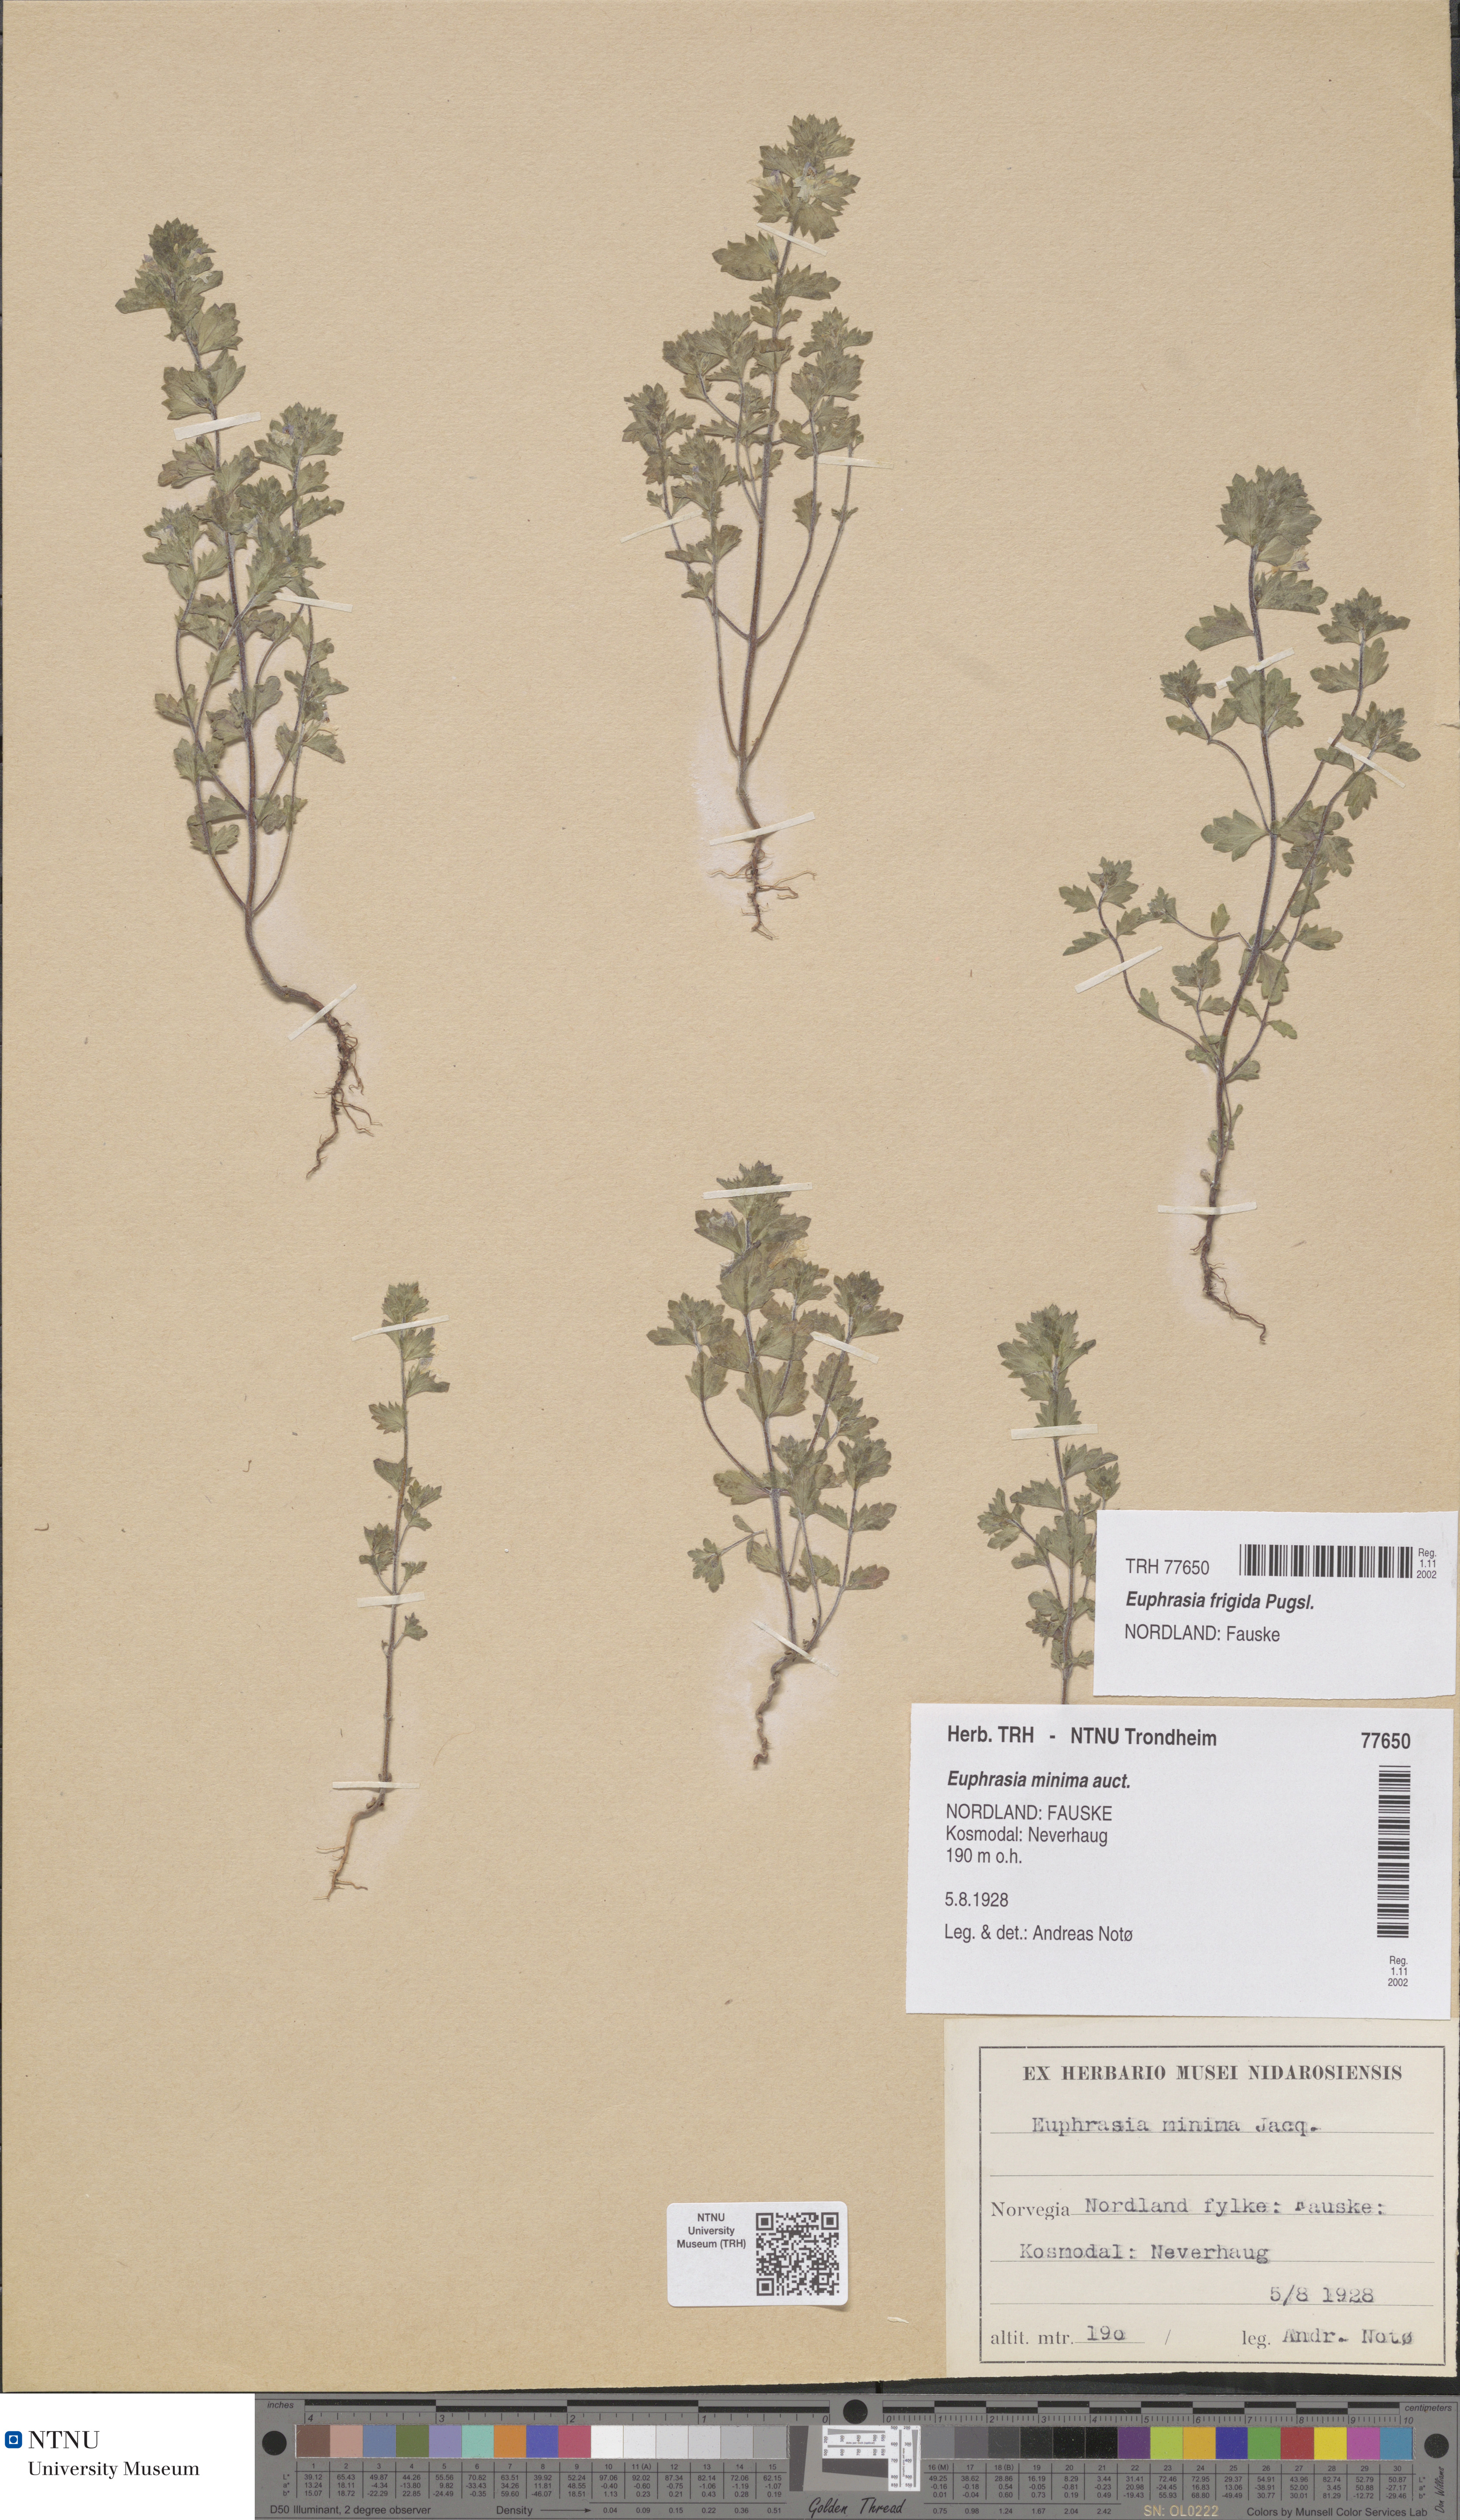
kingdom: Plantae
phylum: Tracheophyta
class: Magnoliopsida
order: Lamiales
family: Orobanchaceae
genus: Euphrasia
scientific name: Euphrasia wettsteinii
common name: Wettstein's eyebright
